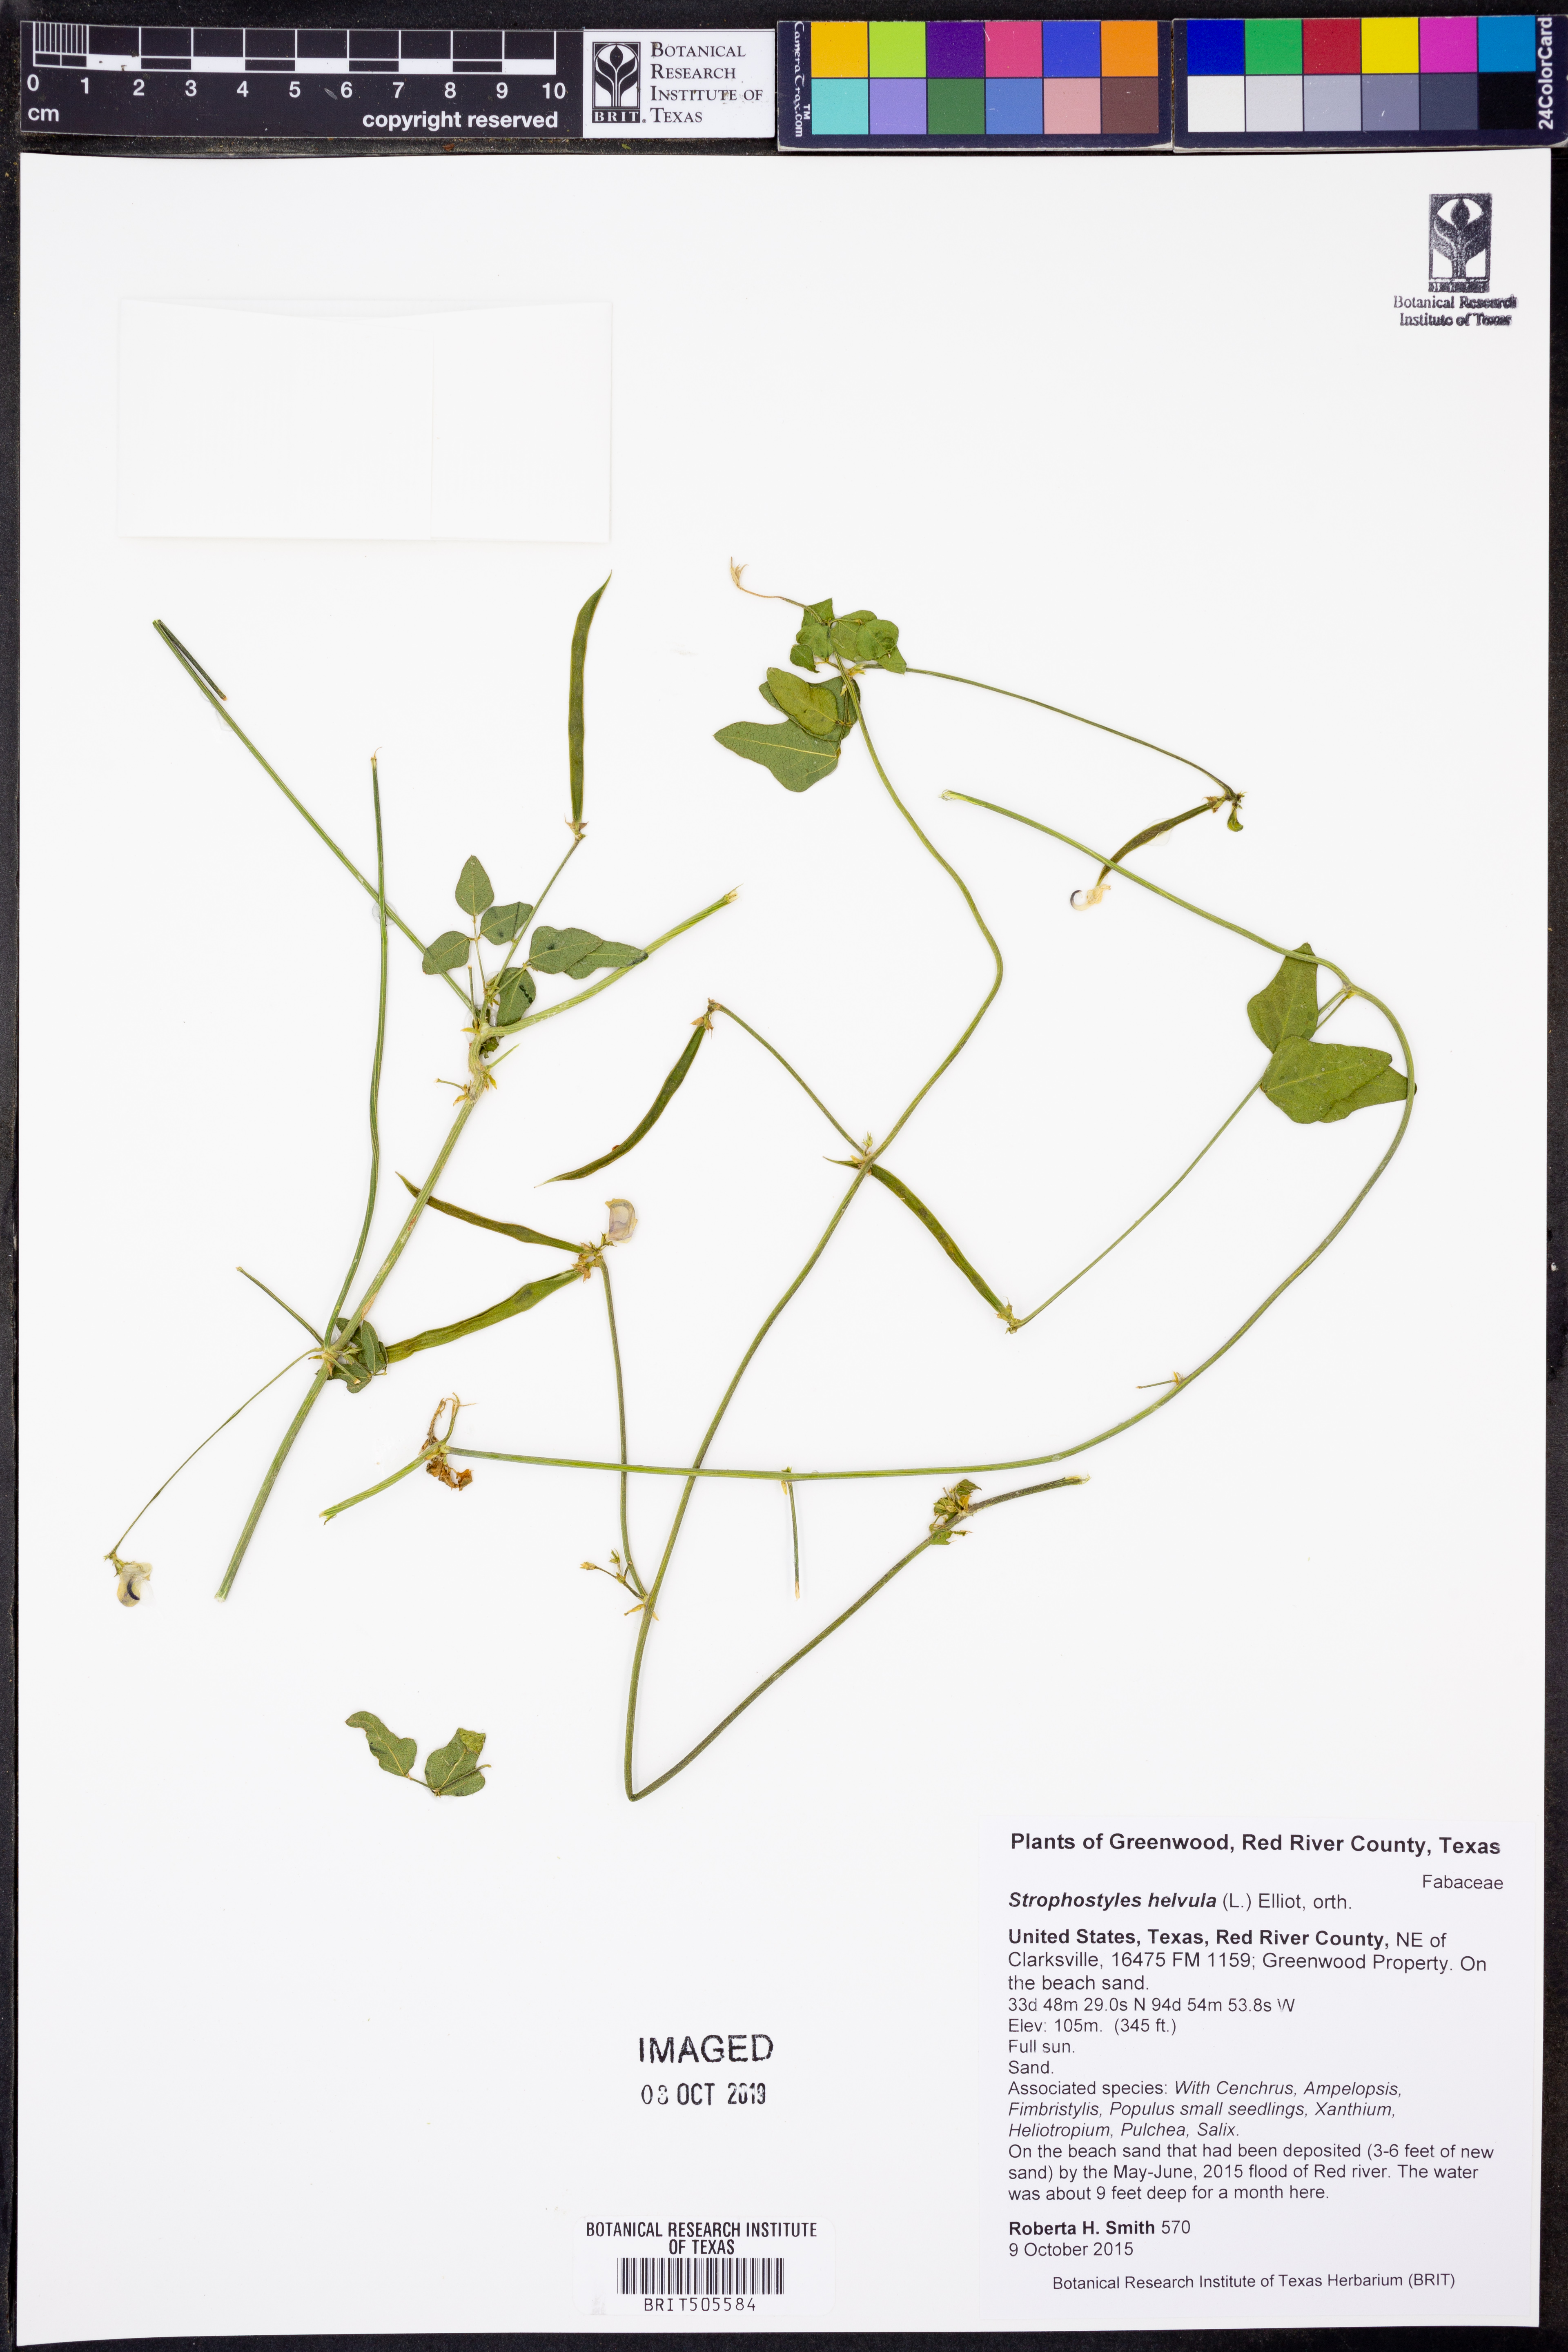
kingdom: Plantae
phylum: Tracheophyta
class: Magnoliopsida
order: Fabales
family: Fabaceae
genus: Strophostyles
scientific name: Strophostyles helvula
